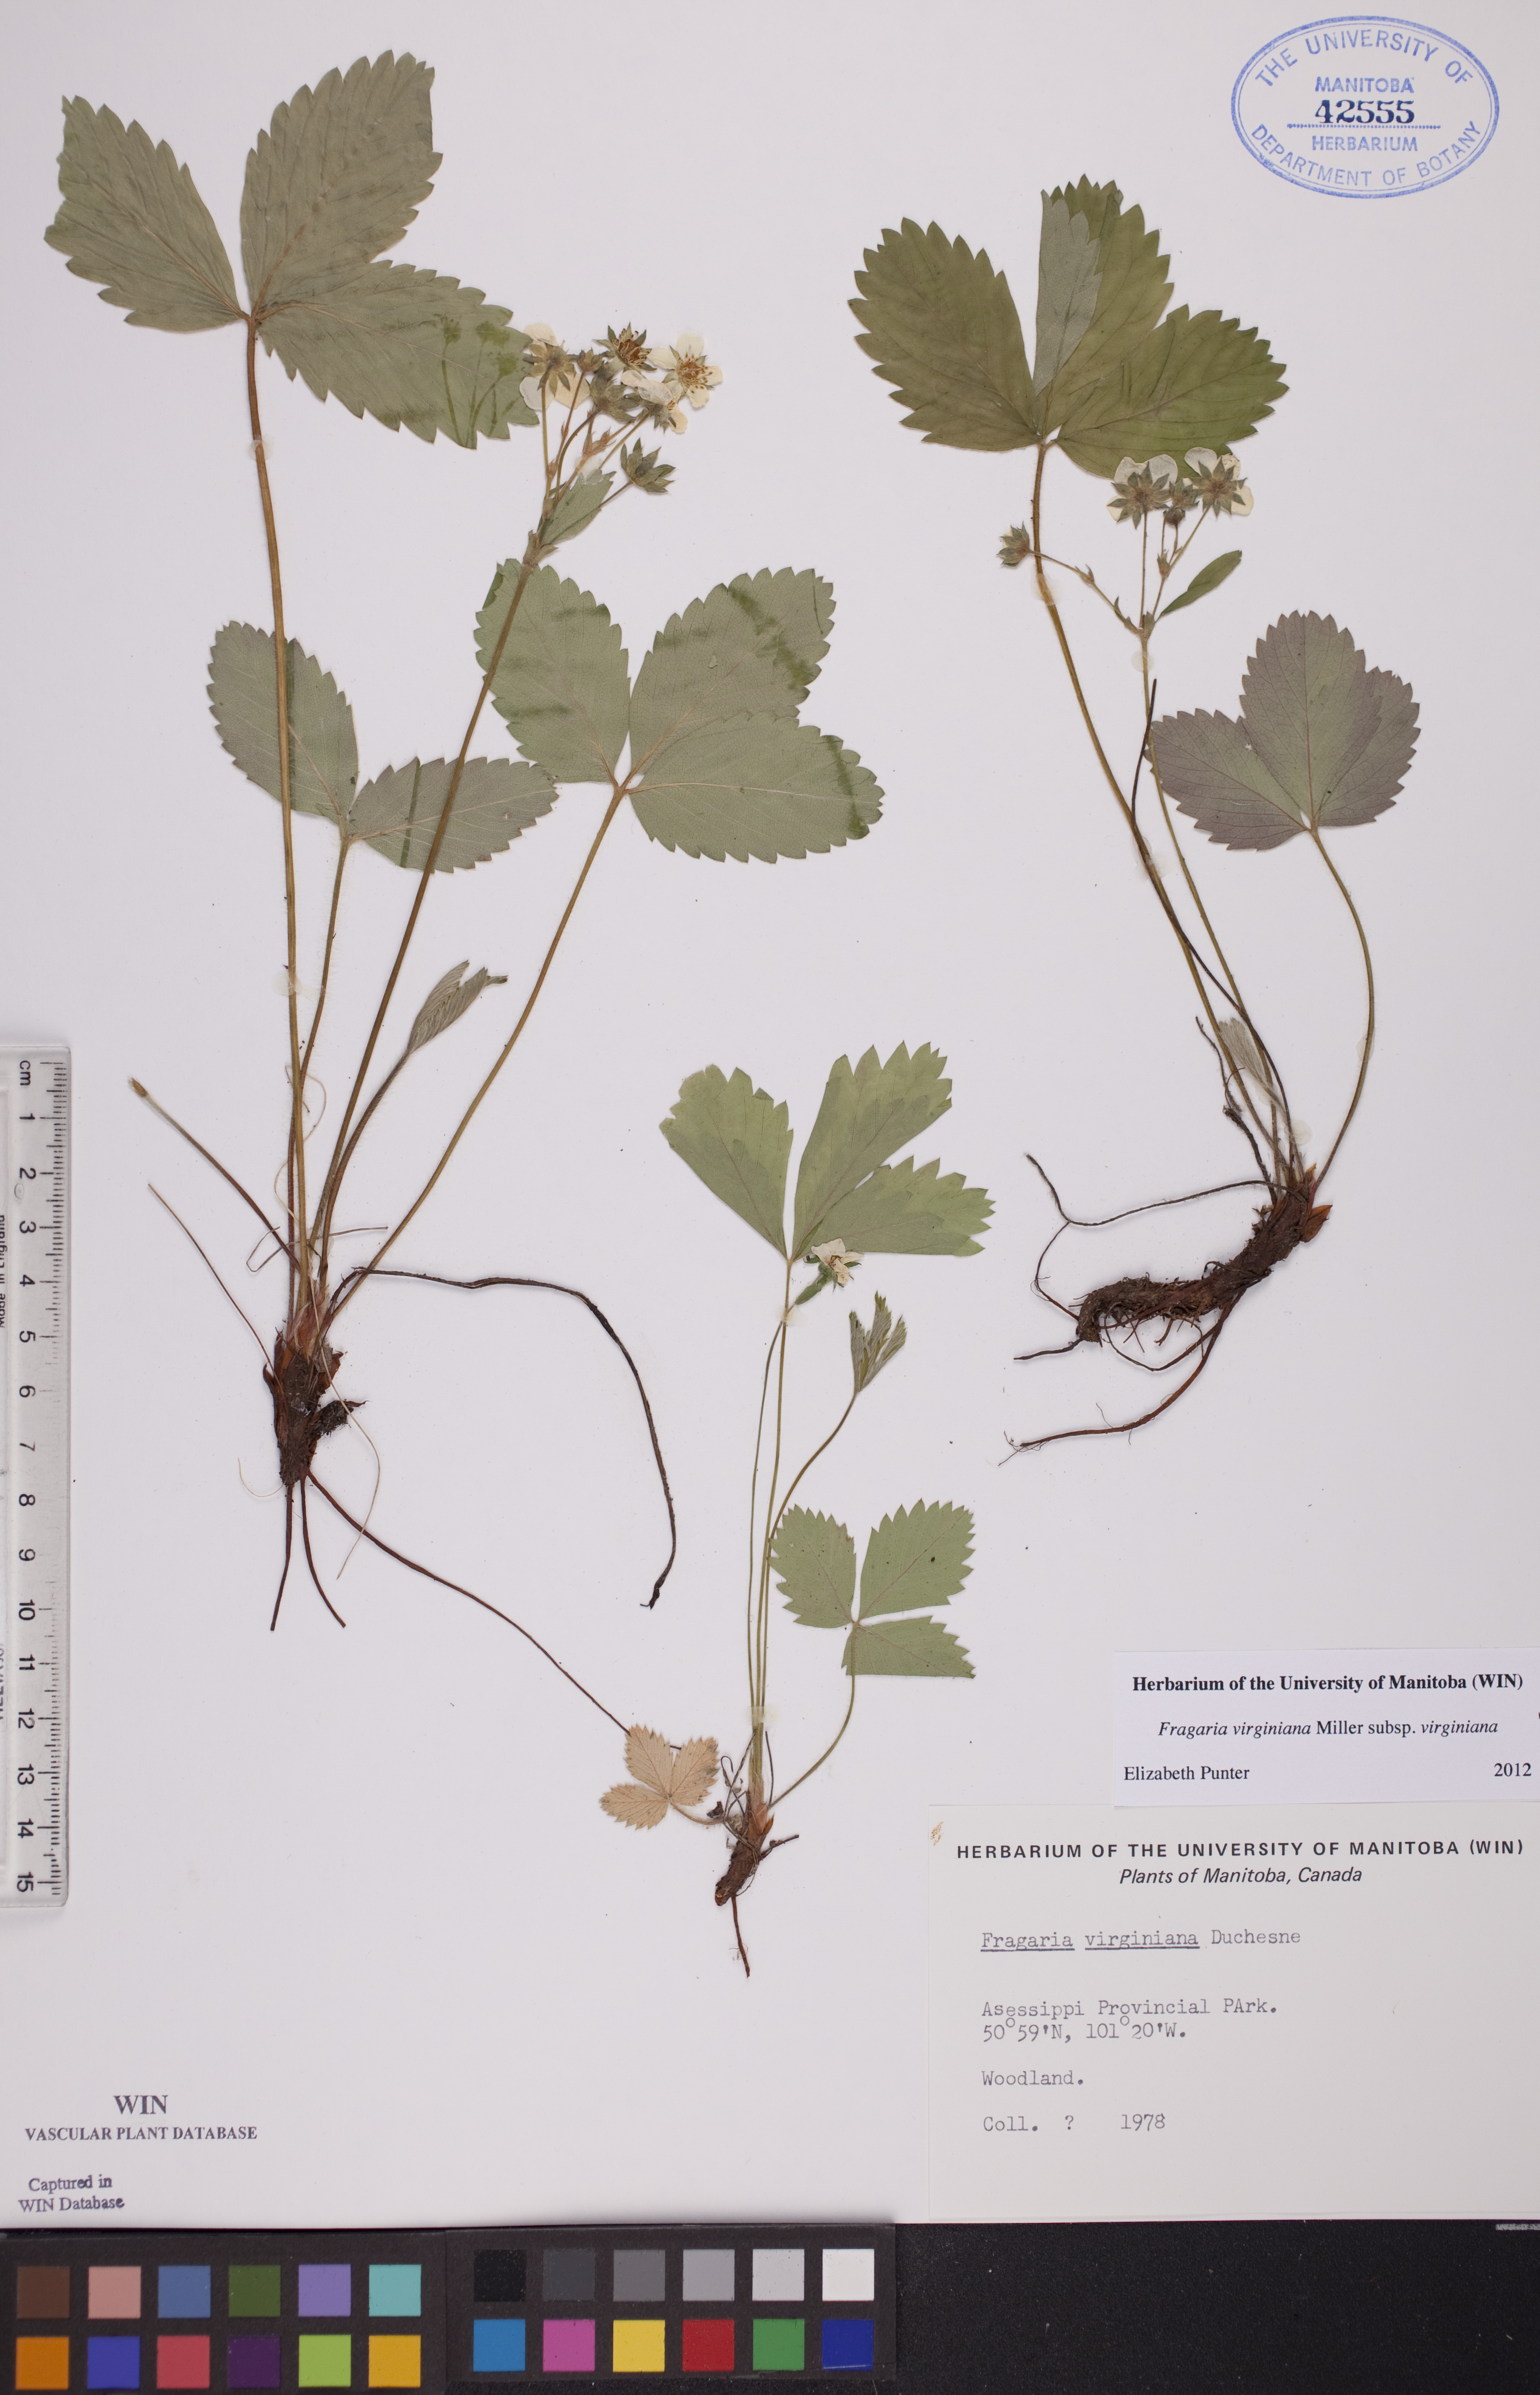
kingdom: Plantae
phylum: Tracheophyta
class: Magnoliopsida
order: Rosales
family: Rosaceae
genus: Fragaria
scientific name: Fragaria virginiana
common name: Thickleaved wild strawberry
